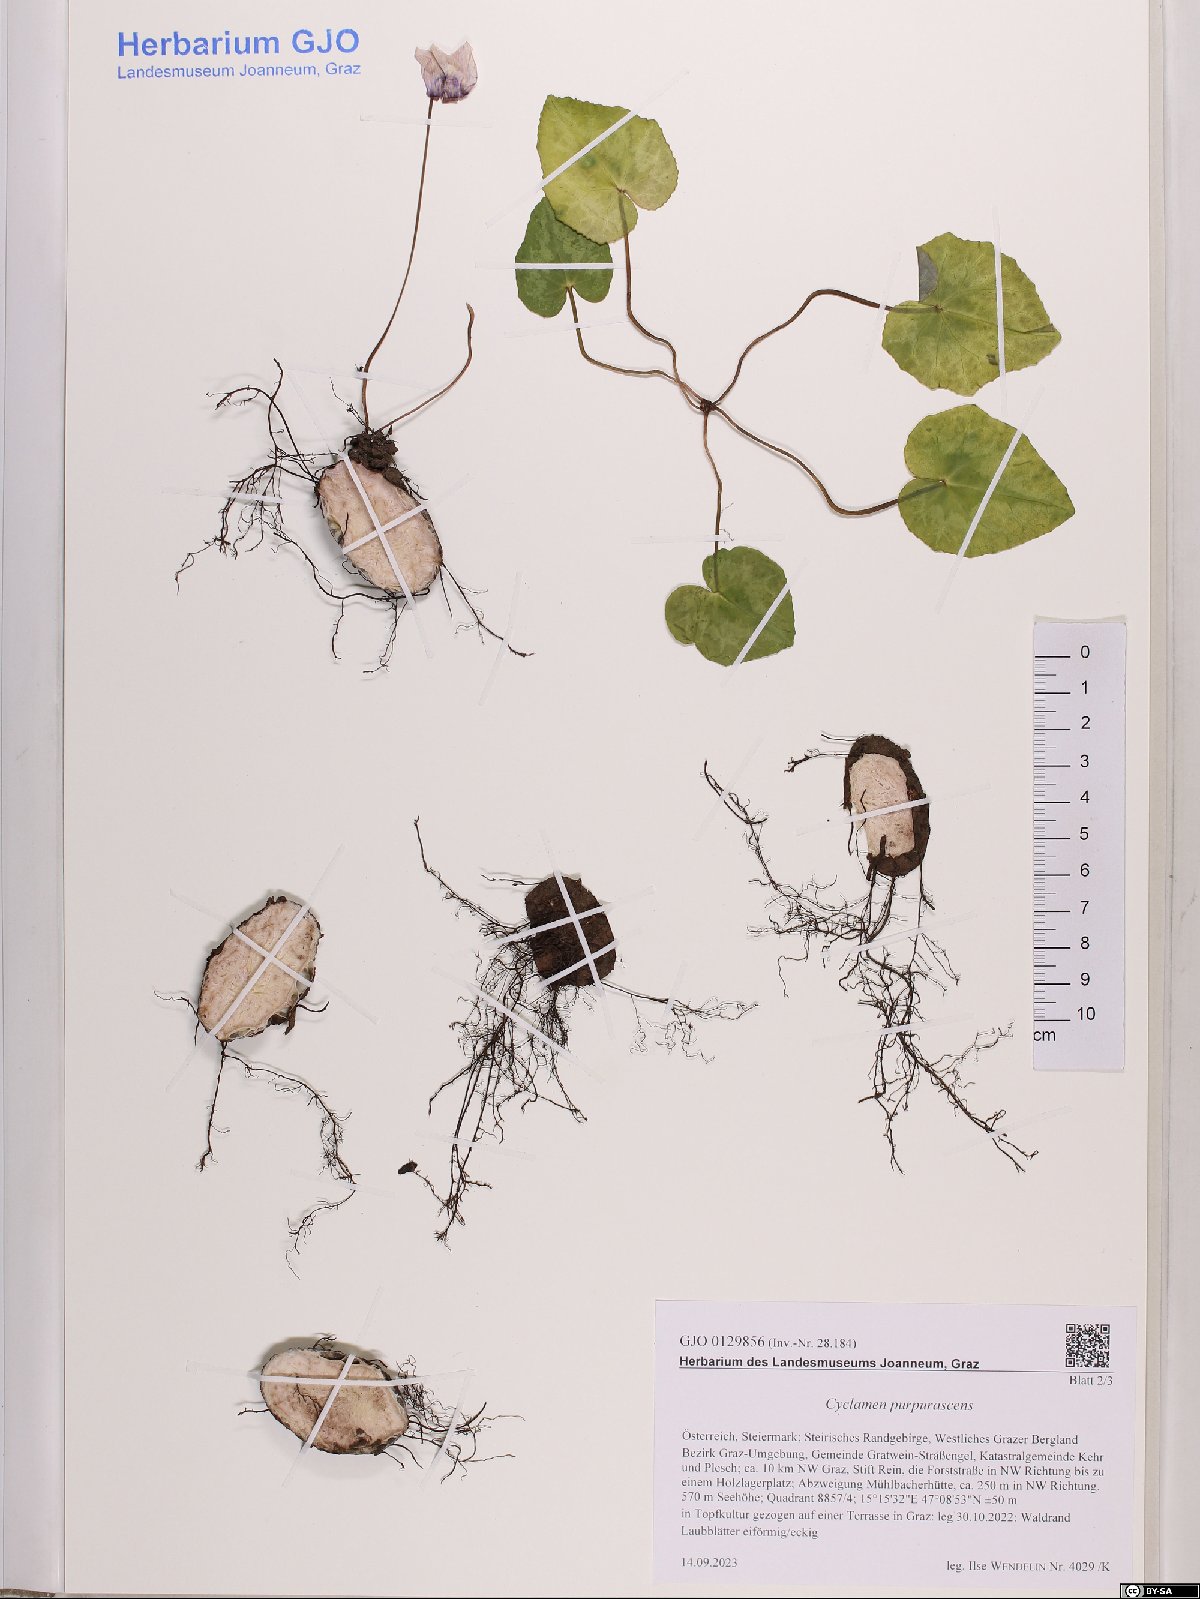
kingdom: Plantae
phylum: Tracheophyta
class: Magnoliopsida
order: Ericales
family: Primulaceae
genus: Cyclamen
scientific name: Cyclamen purpurascens
